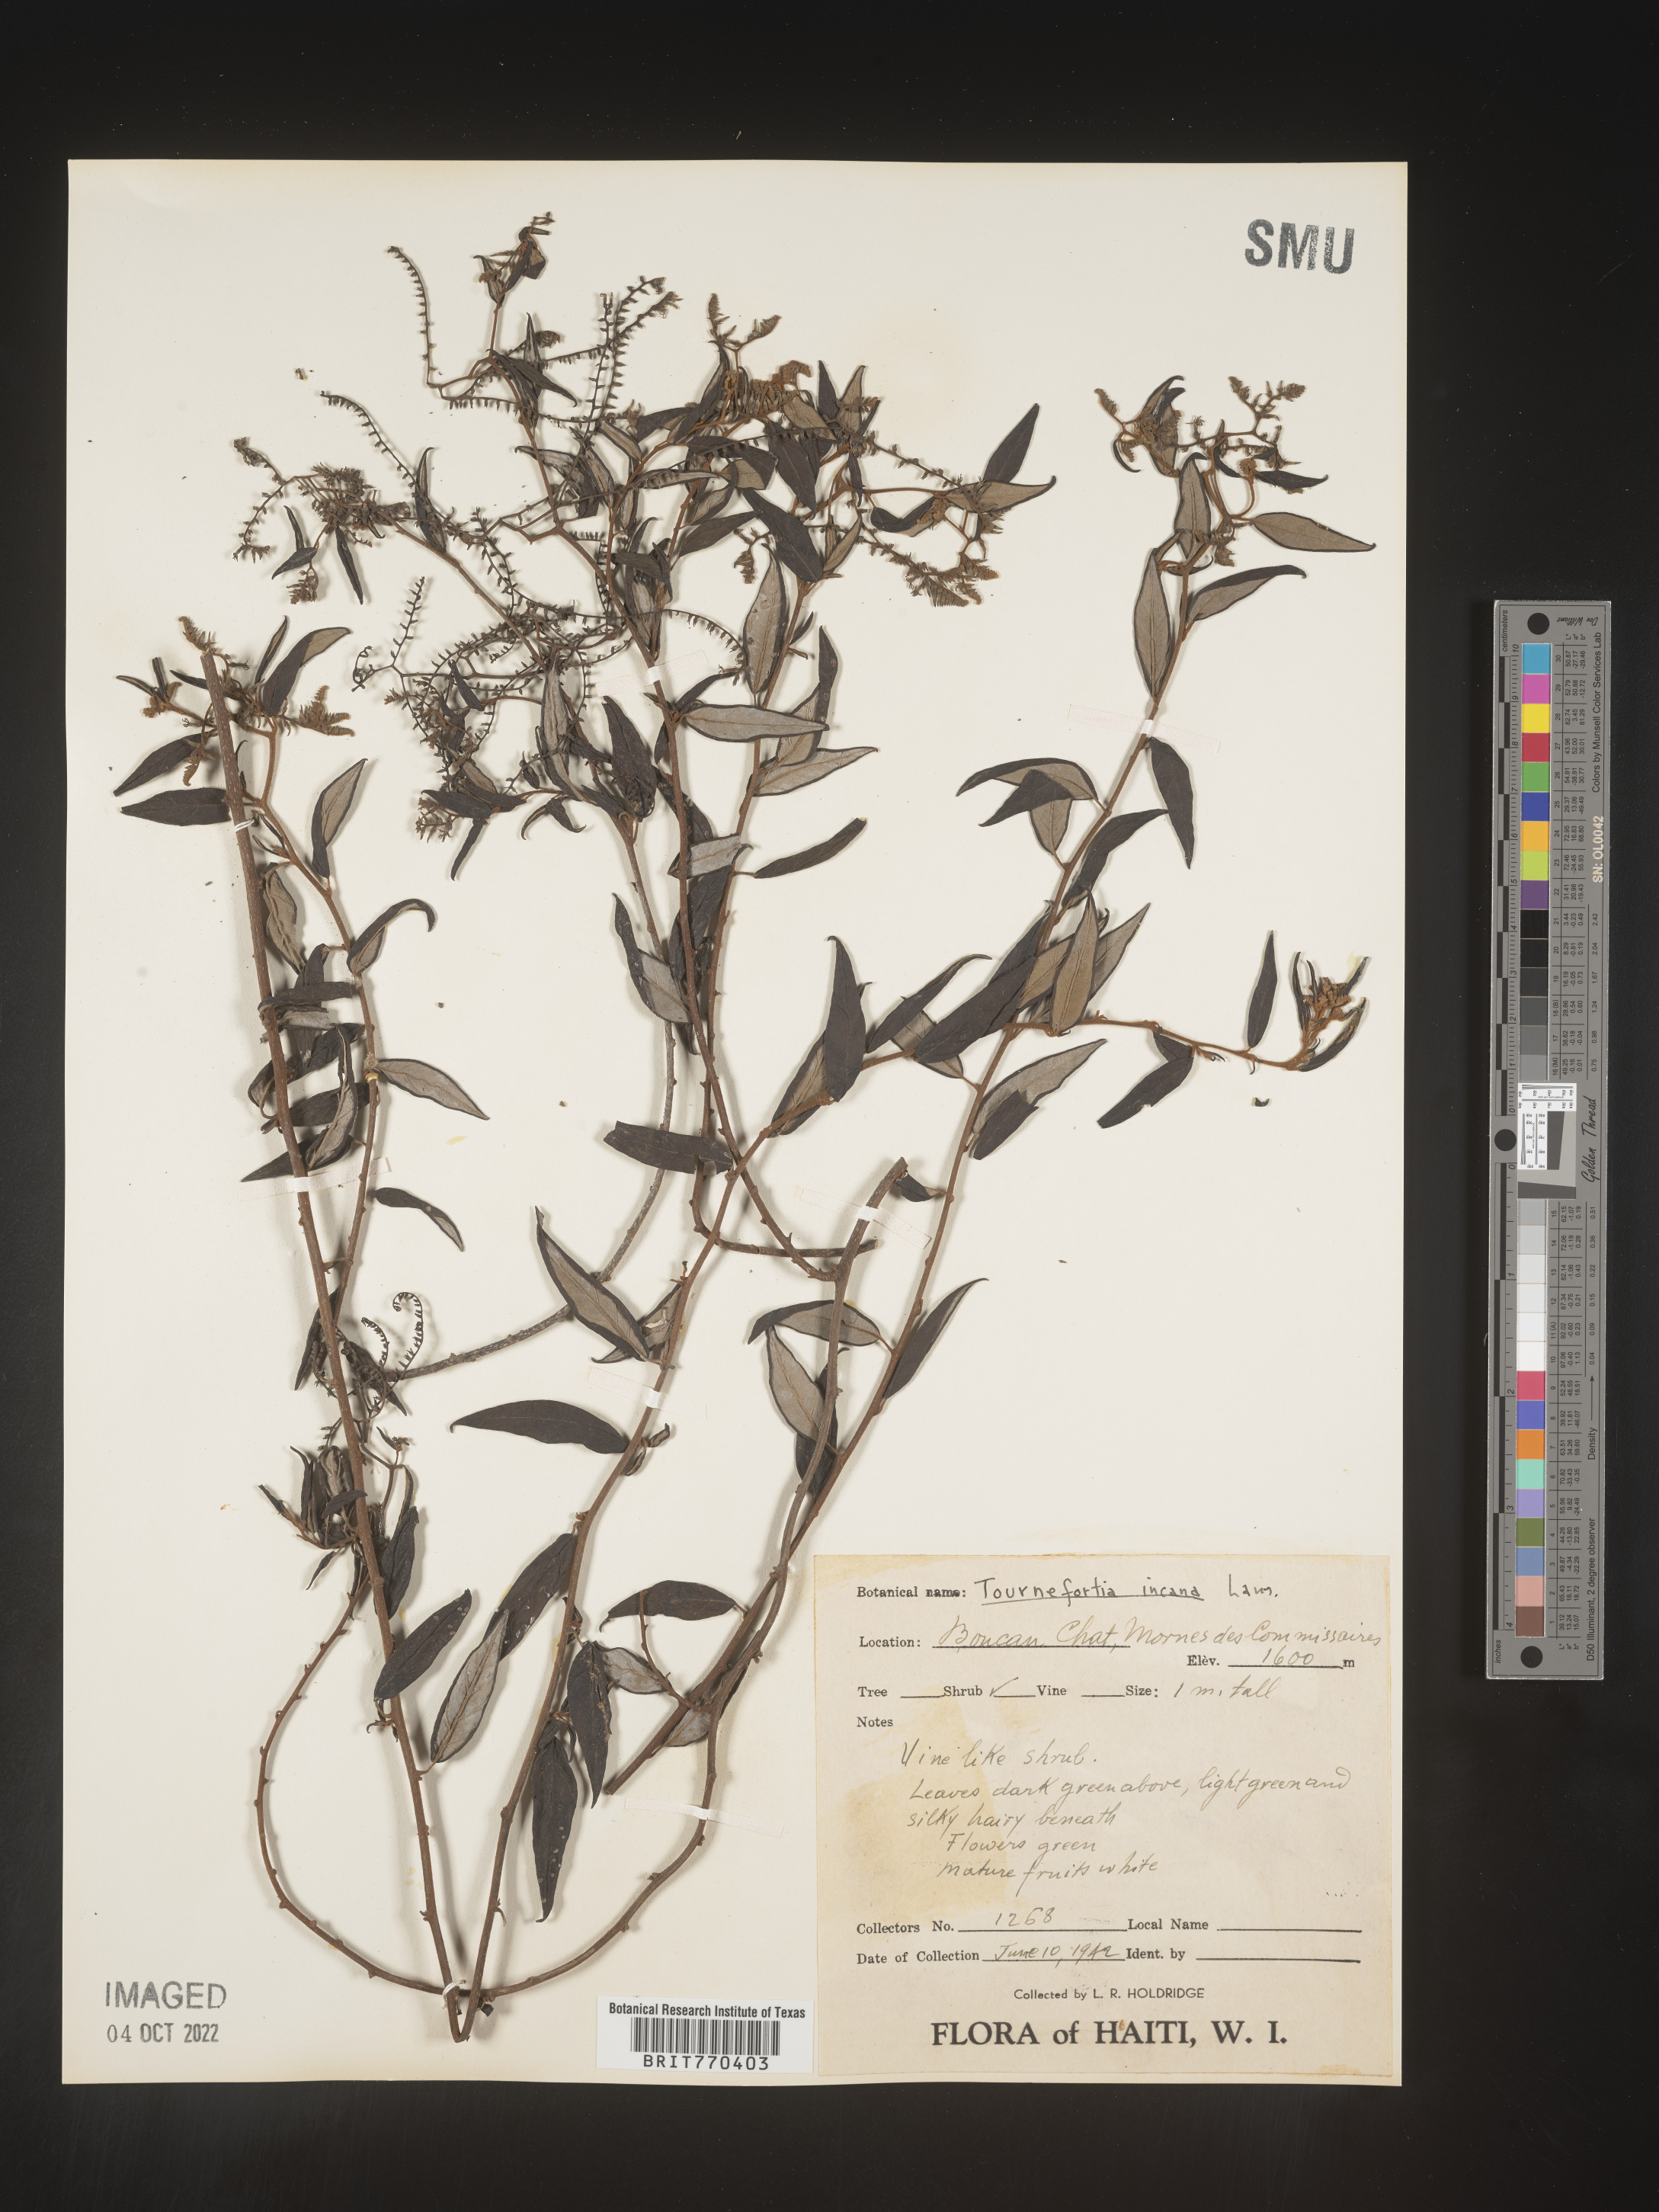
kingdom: Plantae
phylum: Tracheophyta
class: Magnoliopsida
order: Boraginales
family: Heliotropiaceae
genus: Tournefortia
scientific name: Tournefortia
